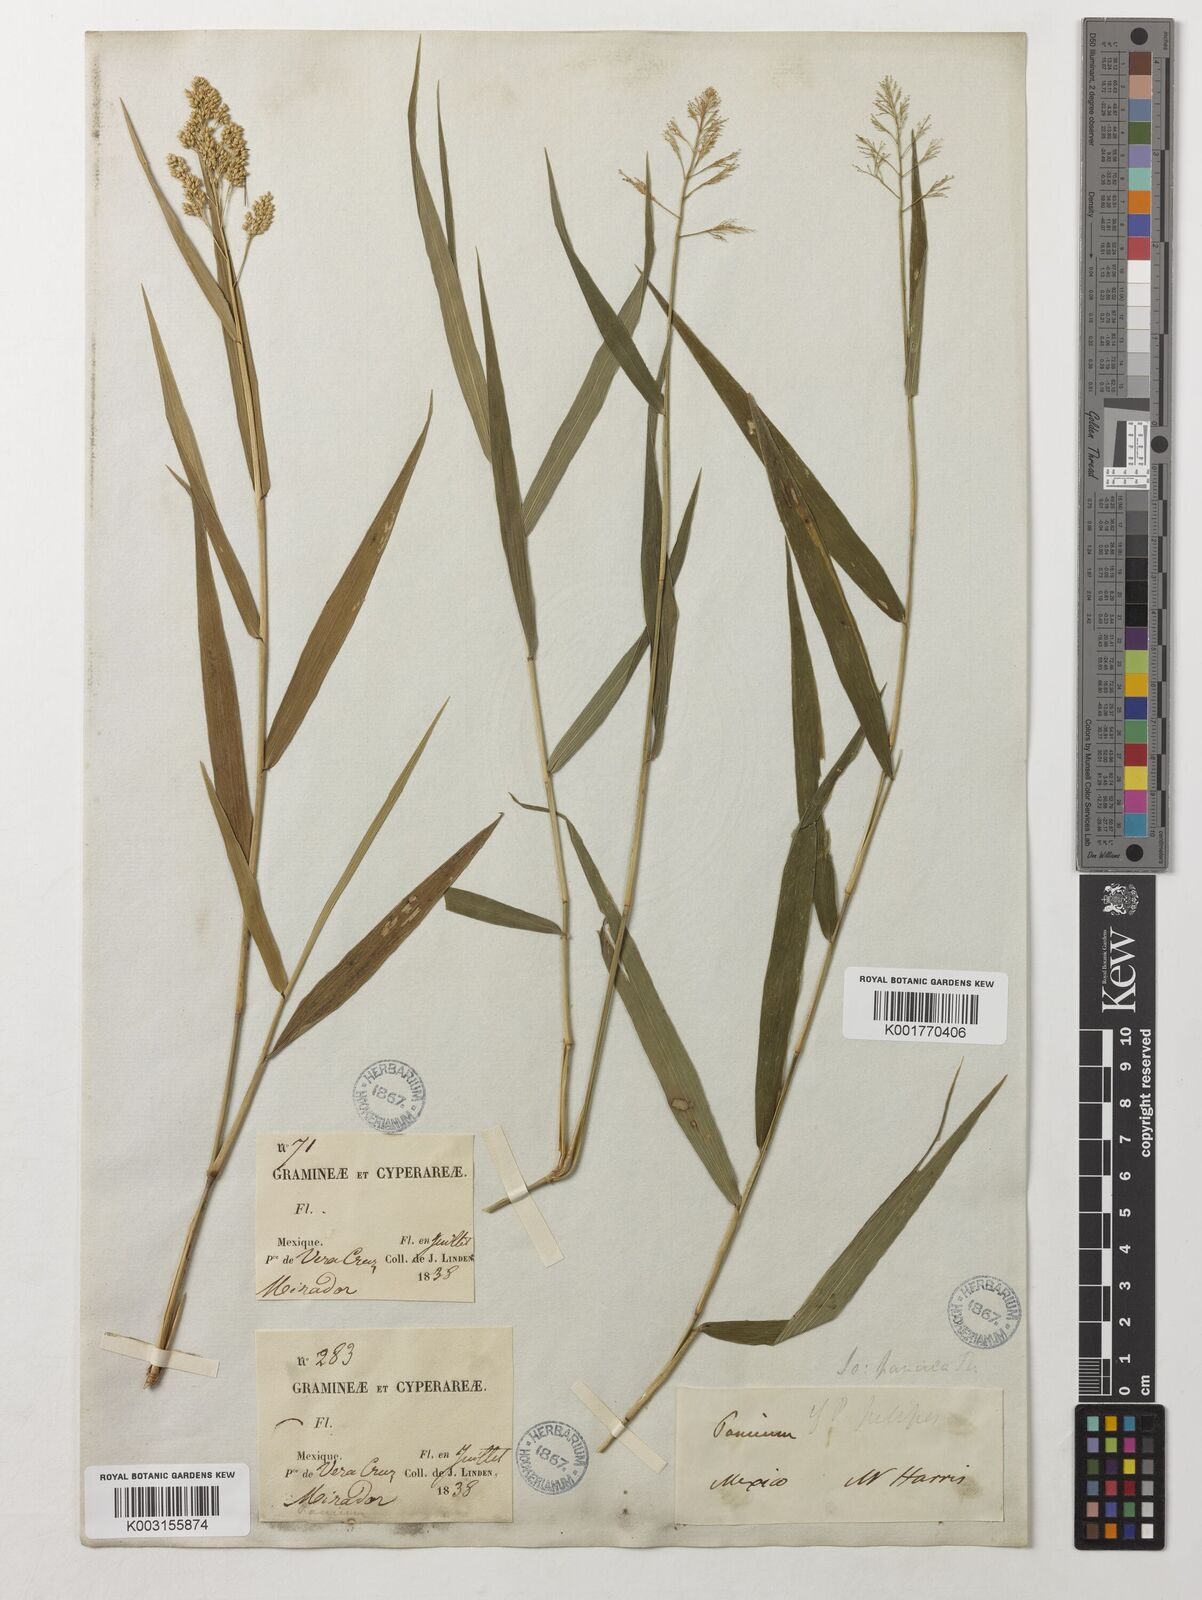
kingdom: Plantae
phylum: Tracheophyta
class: Liliopsida
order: Poales
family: Poaceae
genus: Isachne
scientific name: Isachne arundinacea
